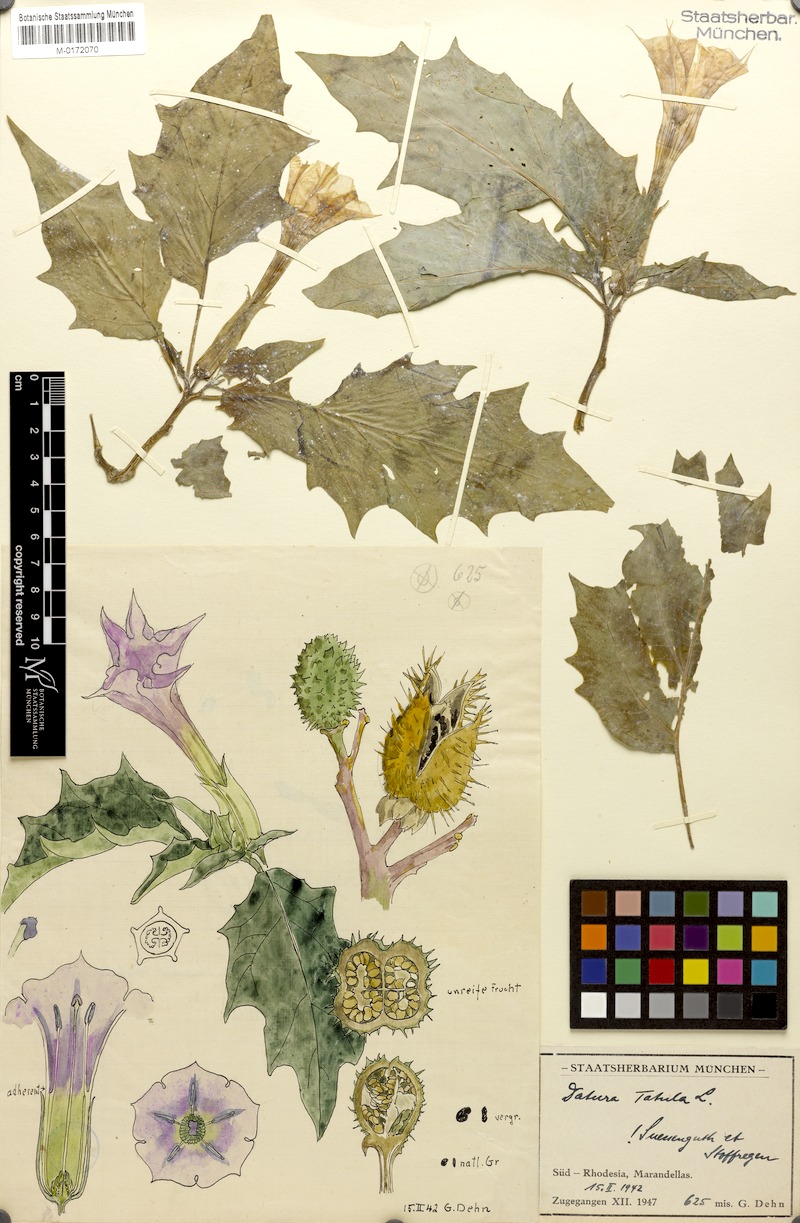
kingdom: Plantae
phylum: Tracheophyta
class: Magnoliopsida
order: Solanales
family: Solanaceae
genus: Datura
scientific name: Datura stramonium
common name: Thorn-apple
